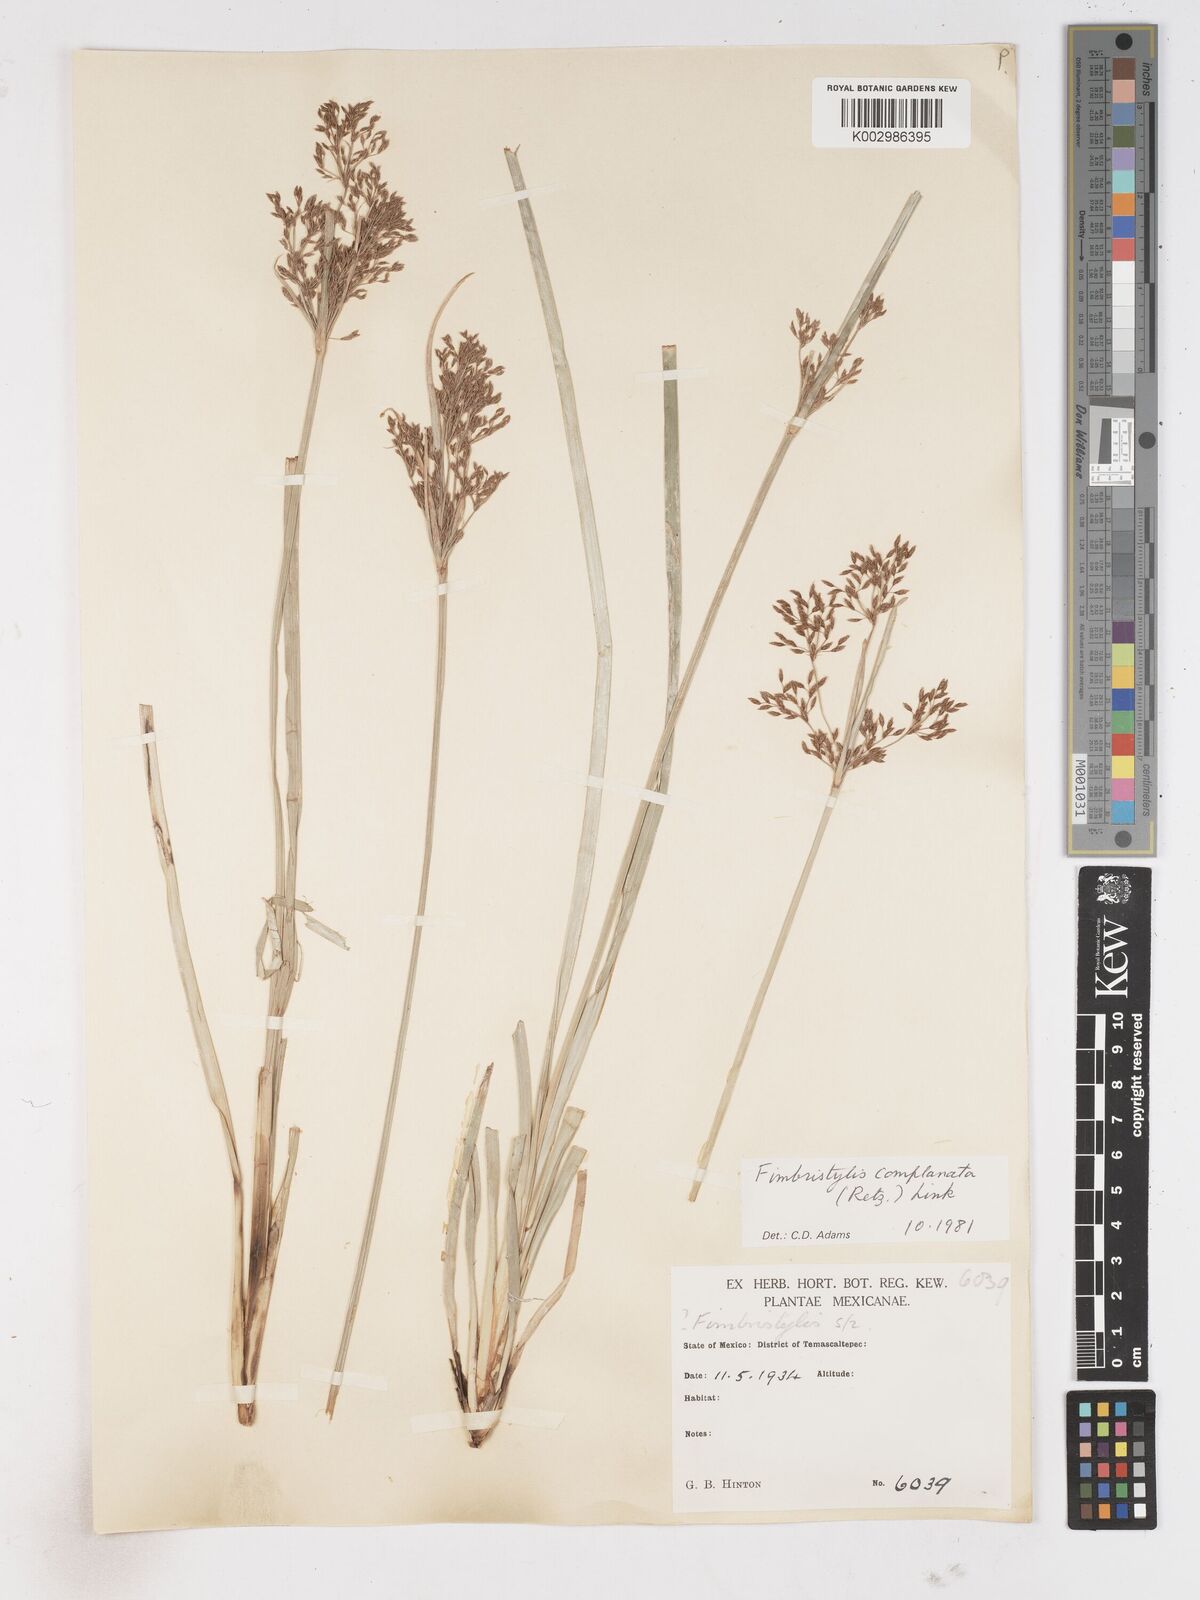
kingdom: Plantae
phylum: Tracheophyta
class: Liliopsida
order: Poales
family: Cyperaceae
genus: Fimbristylis
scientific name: Fimbristylis complanata
